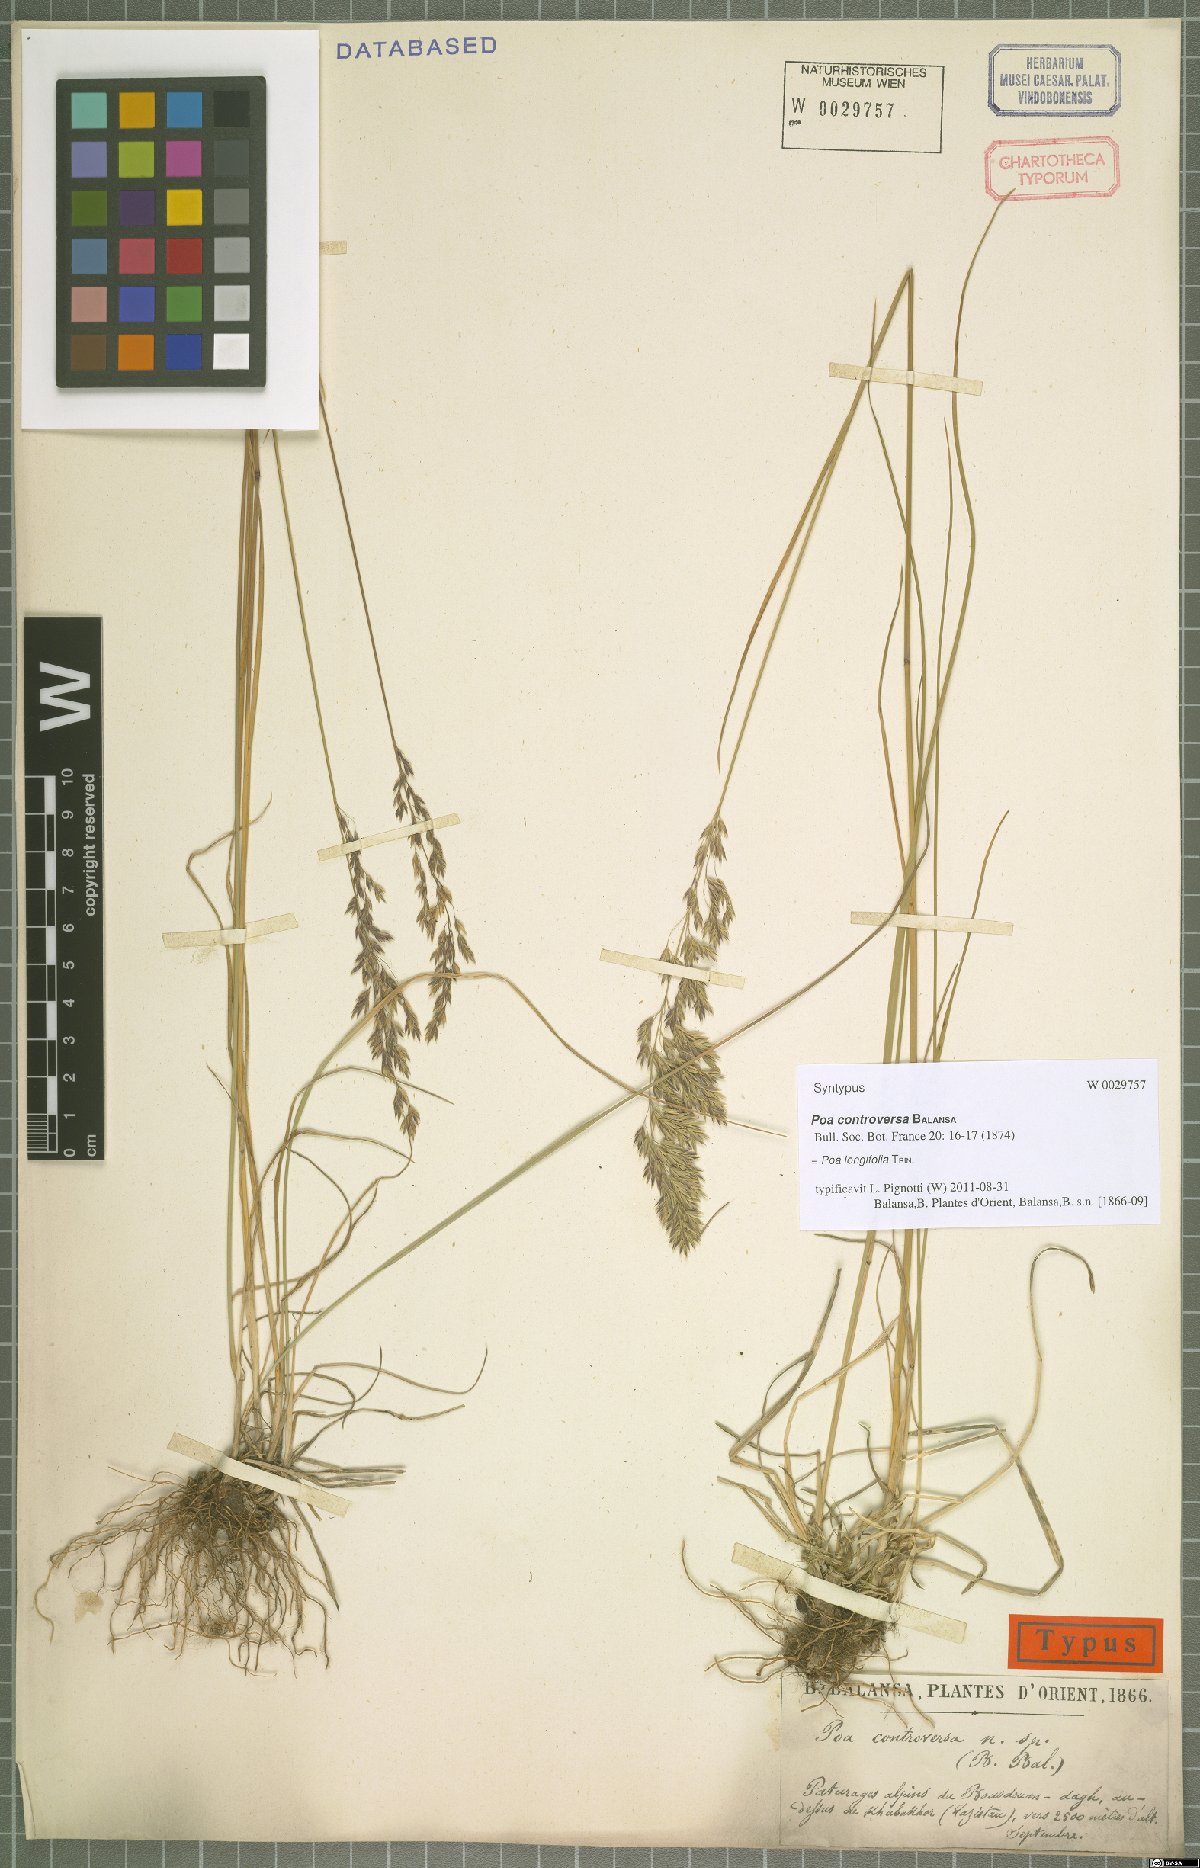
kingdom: Plantae
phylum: Tracheophyta
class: Liliopsida
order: Poales
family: Poaceae
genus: Poa
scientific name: Poa longifolia
